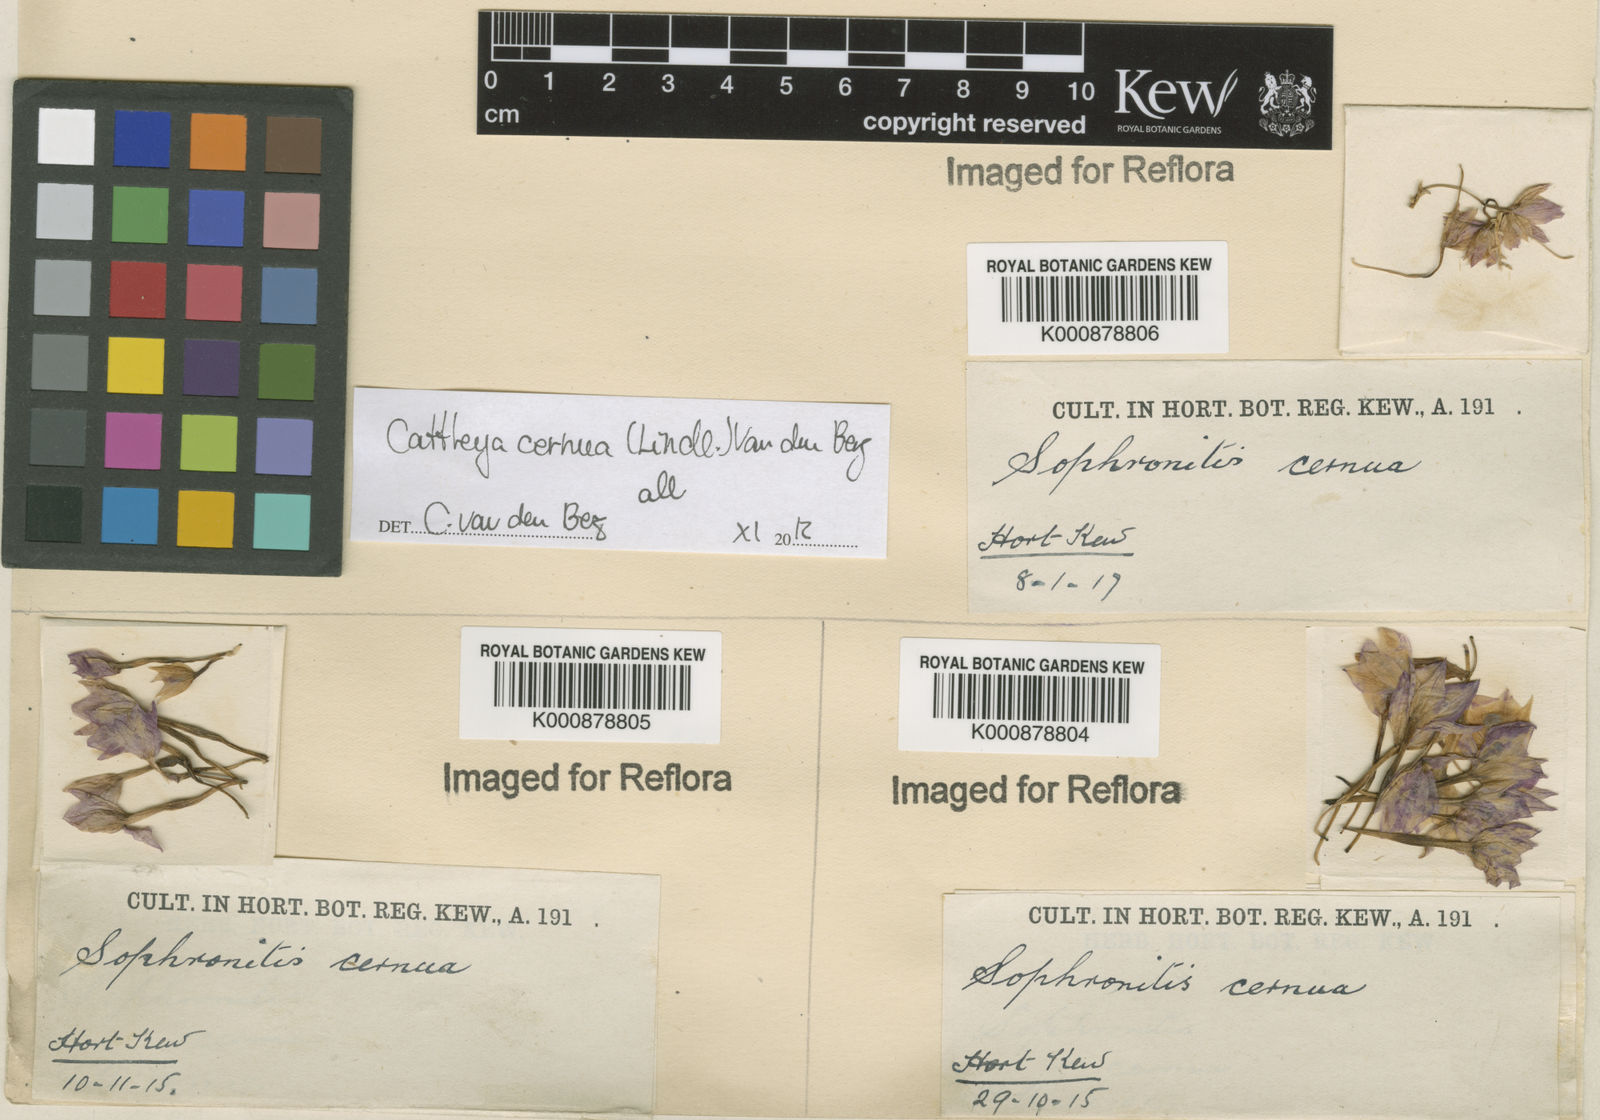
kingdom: Plantae
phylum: Tracheophyta
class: Liliopsida
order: Asparagales
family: Orchidaceae
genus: Cattleya
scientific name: Cattleya
